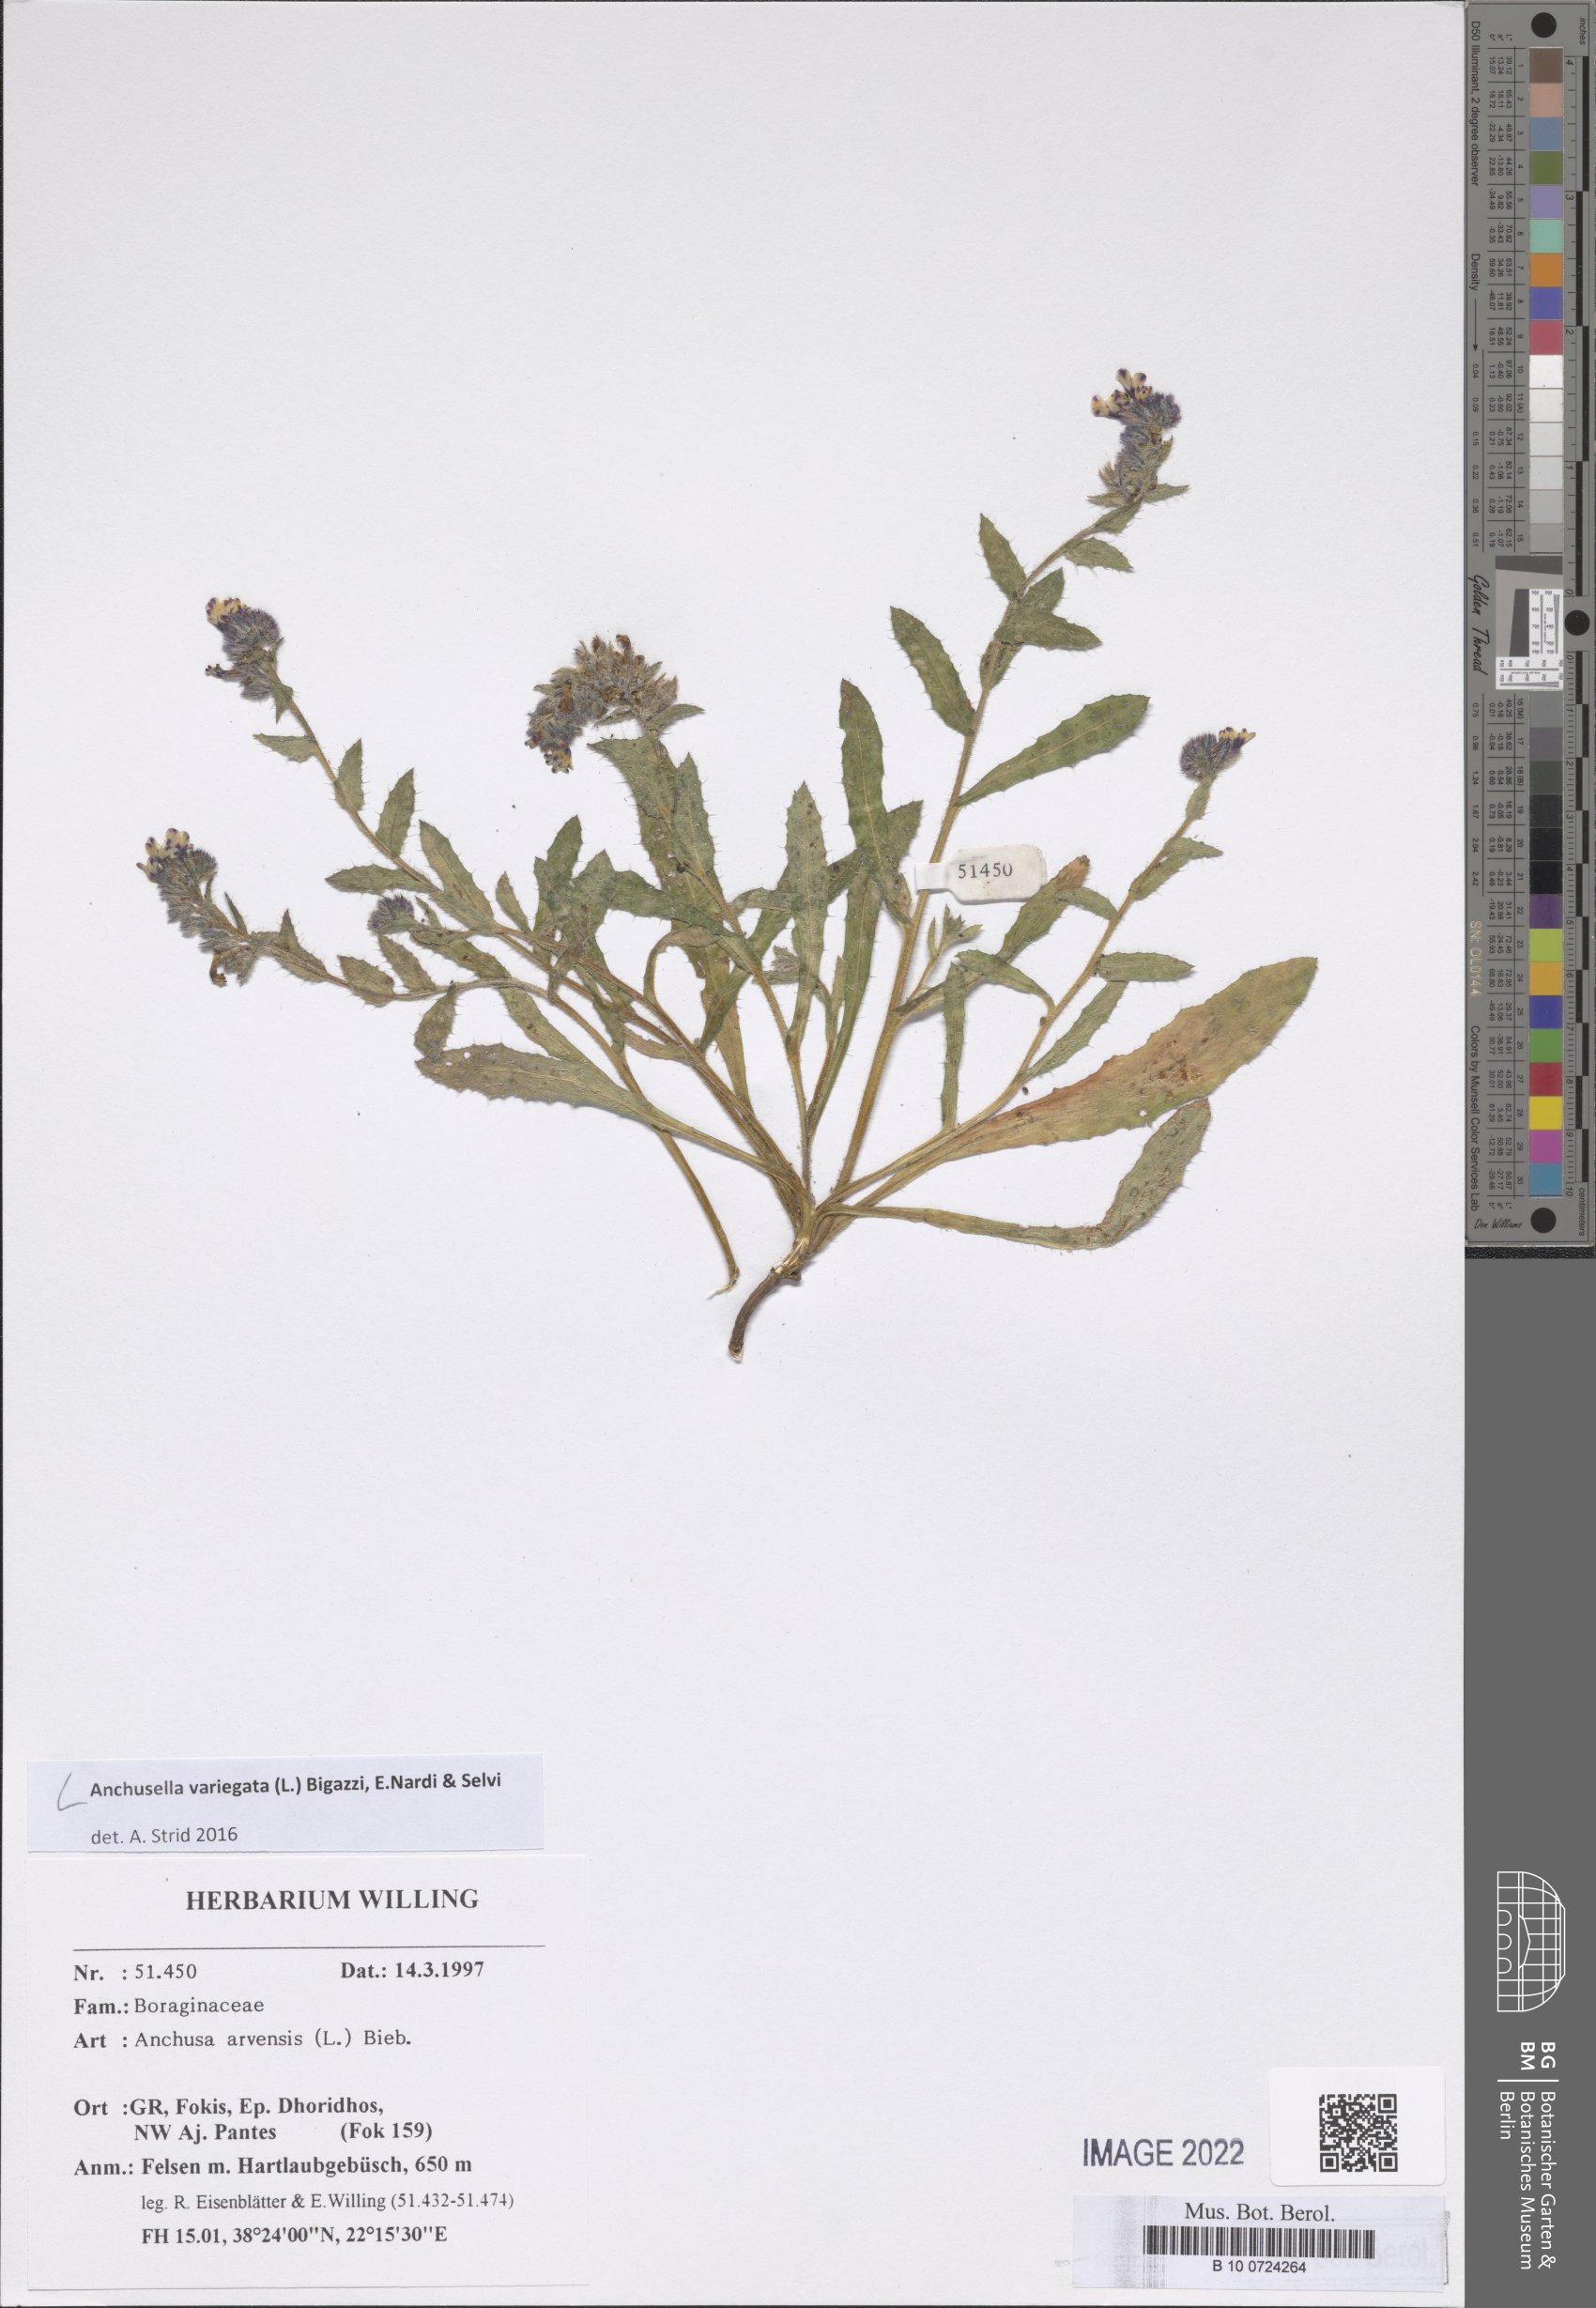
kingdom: Plantae
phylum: Tracheophyta
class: Magnoliopsida
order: Boraginales
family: Boraginaceae
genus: Anchusella
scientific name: Anchusella variegata
